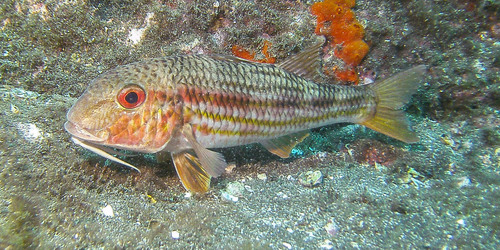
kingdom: Animalia
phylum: Chordata
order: Perciformes
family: Mullidae
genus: Mullus
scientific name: Mullus surmuletus
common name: Red mullet
